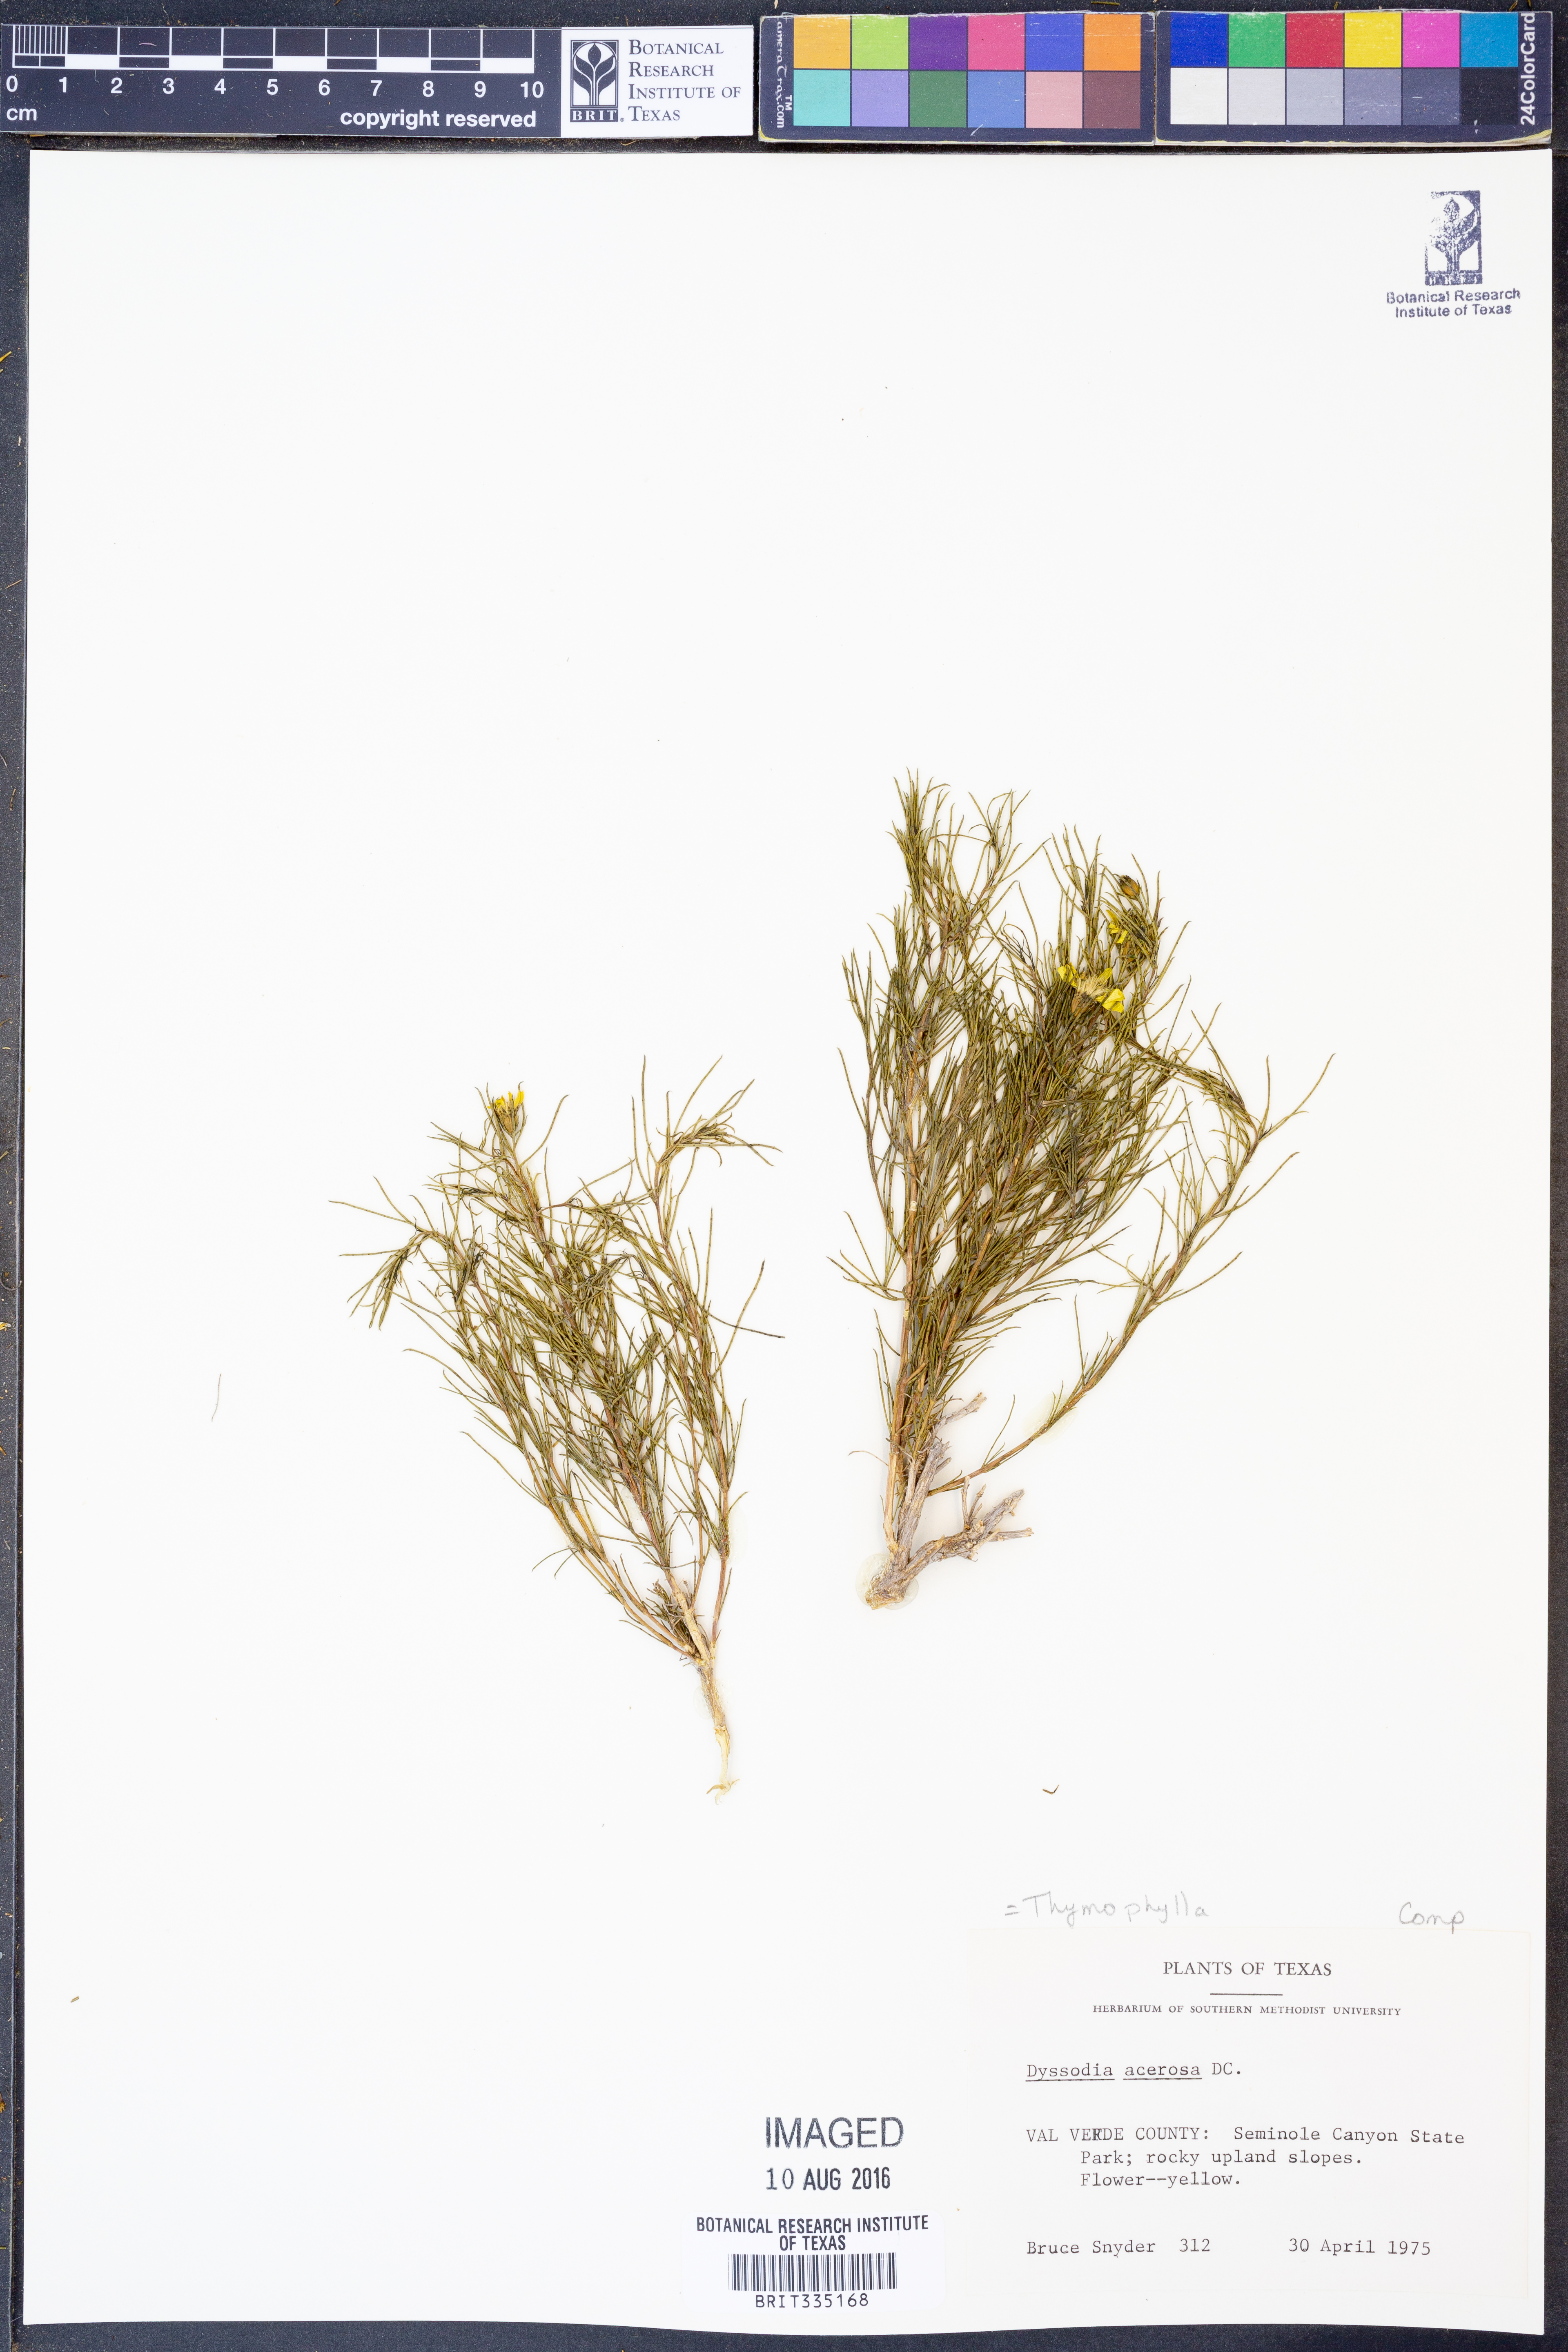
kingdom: Plantae
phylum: Tracheophyta
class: Magnoliopsida
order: Asterales
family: Asteraceae
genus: Thymophylla
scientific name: Thymophylla acerosa
